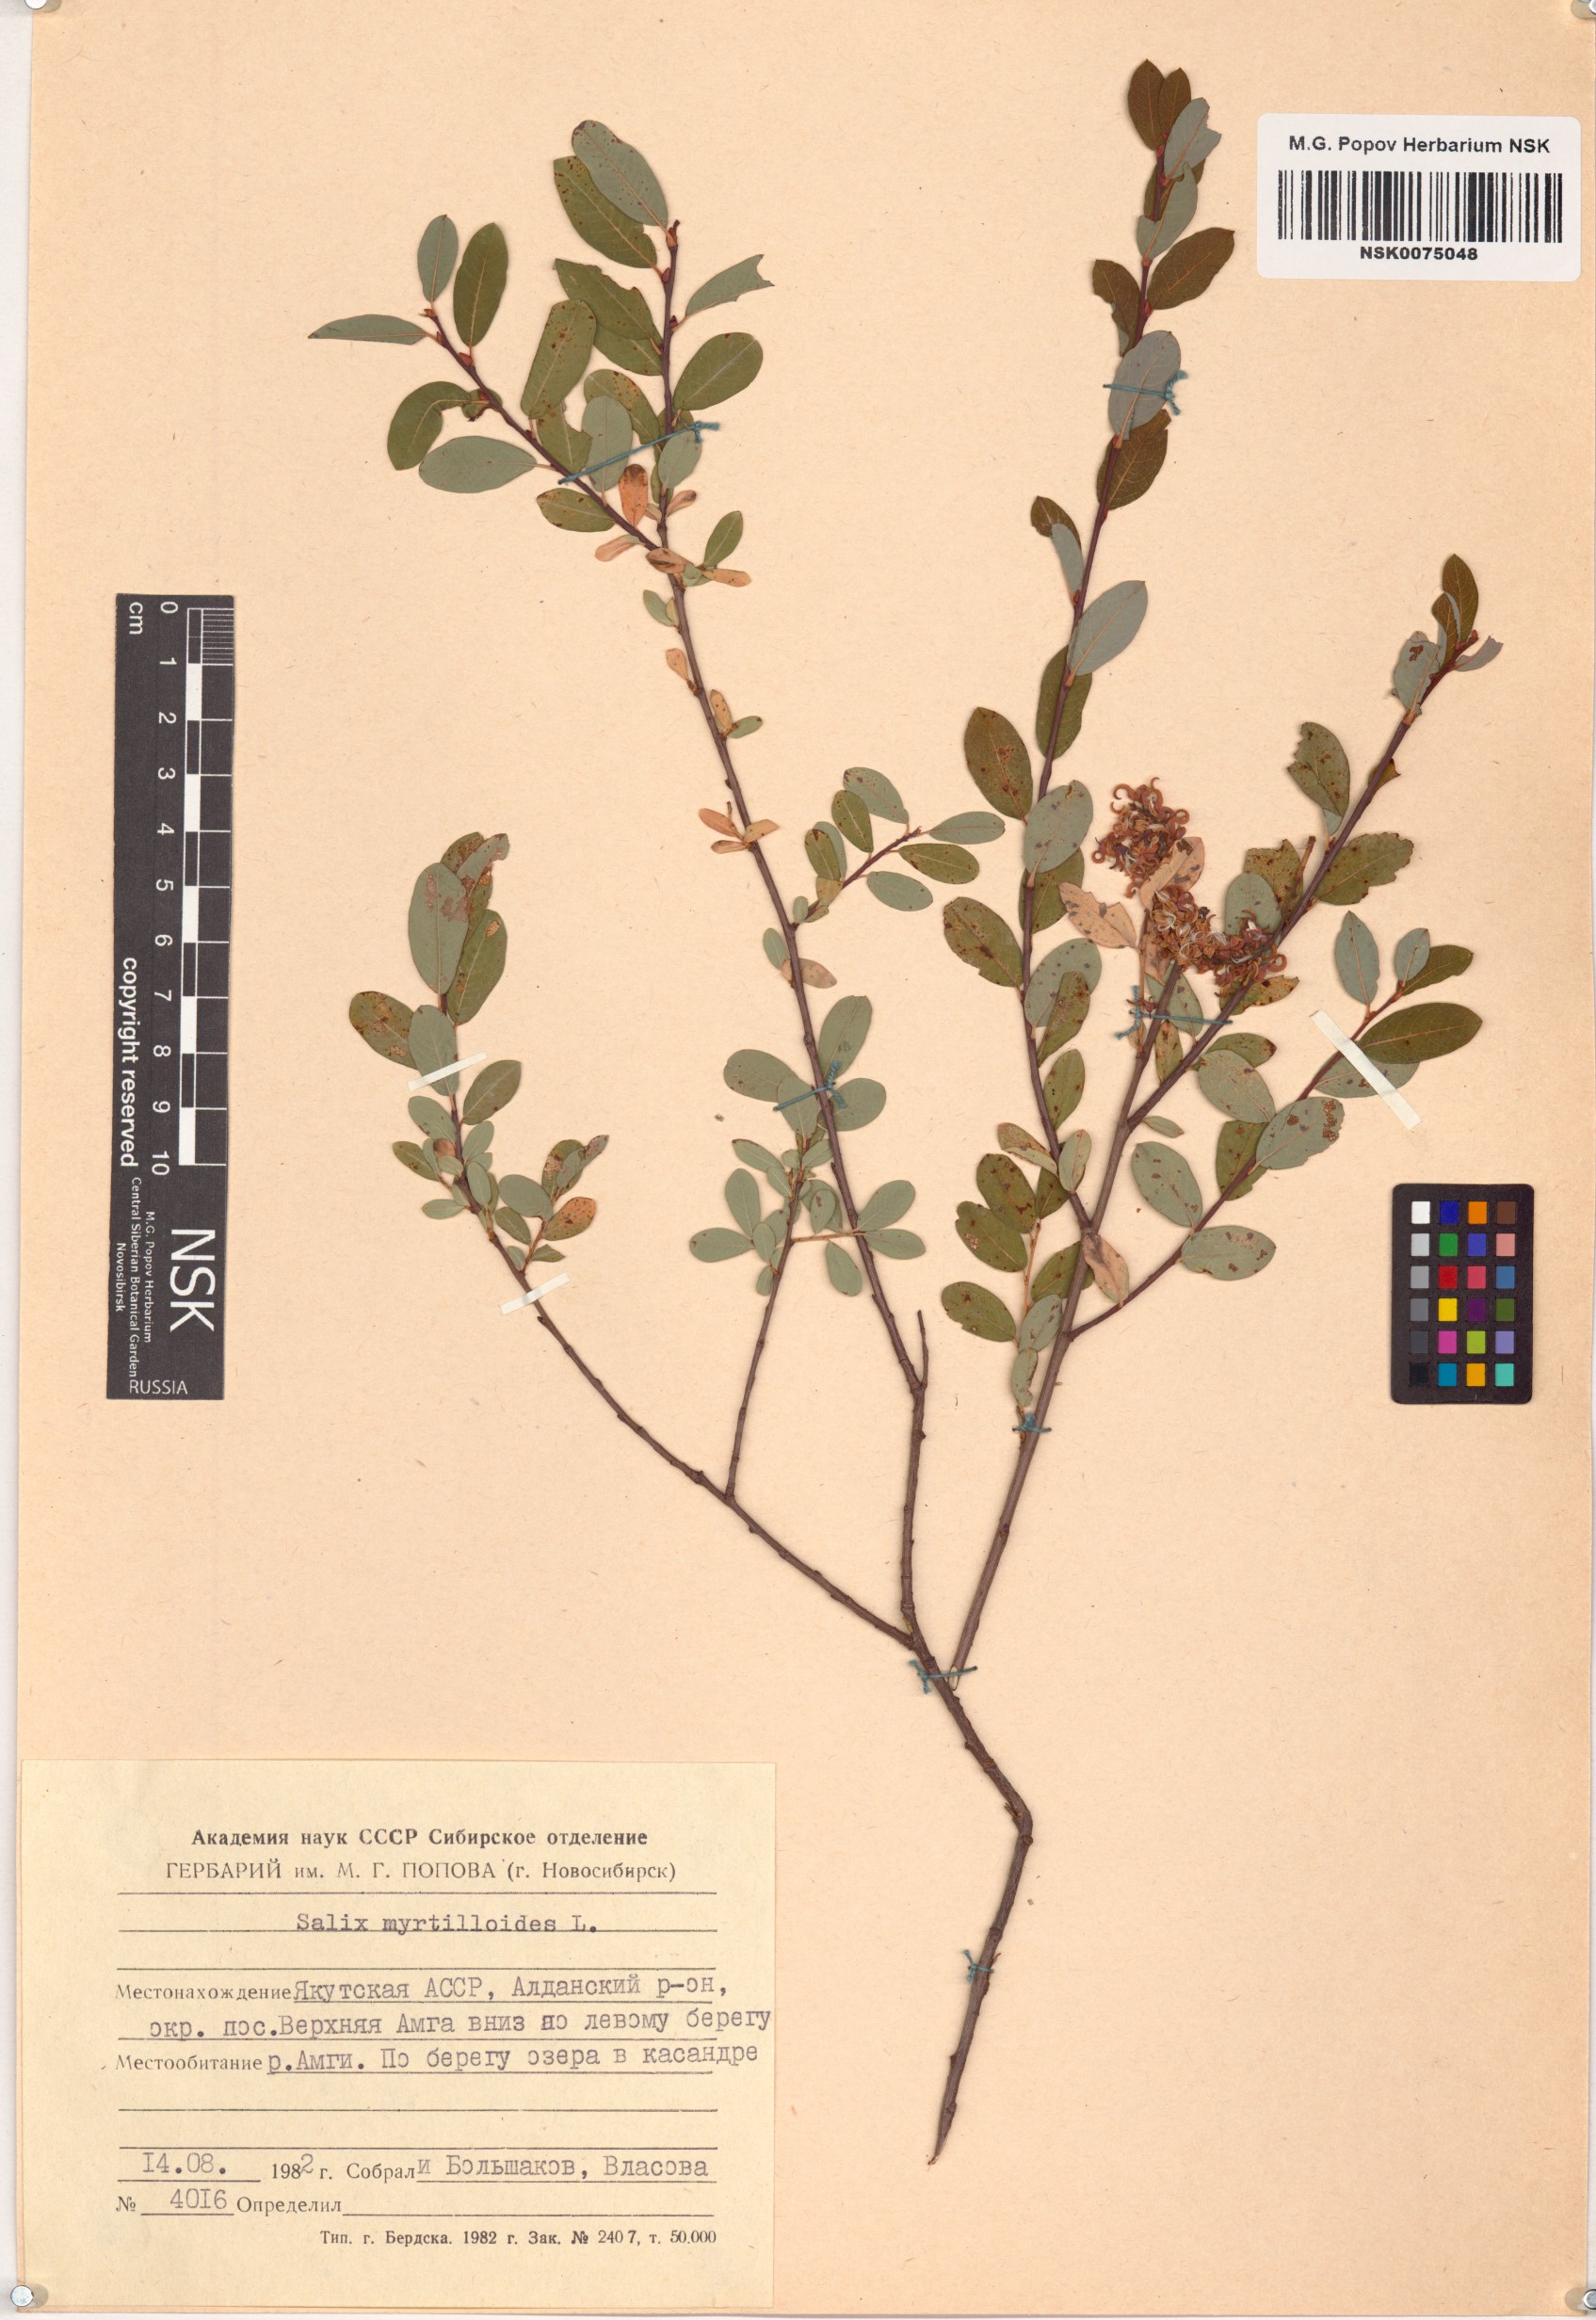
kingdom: Plantae
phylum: Tracheophyta
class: Magnoliopsida
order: Malpighiales
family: Salicaceae
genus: Salix
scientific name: Salix myrtilloides
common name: Myrtle-leaved willow
